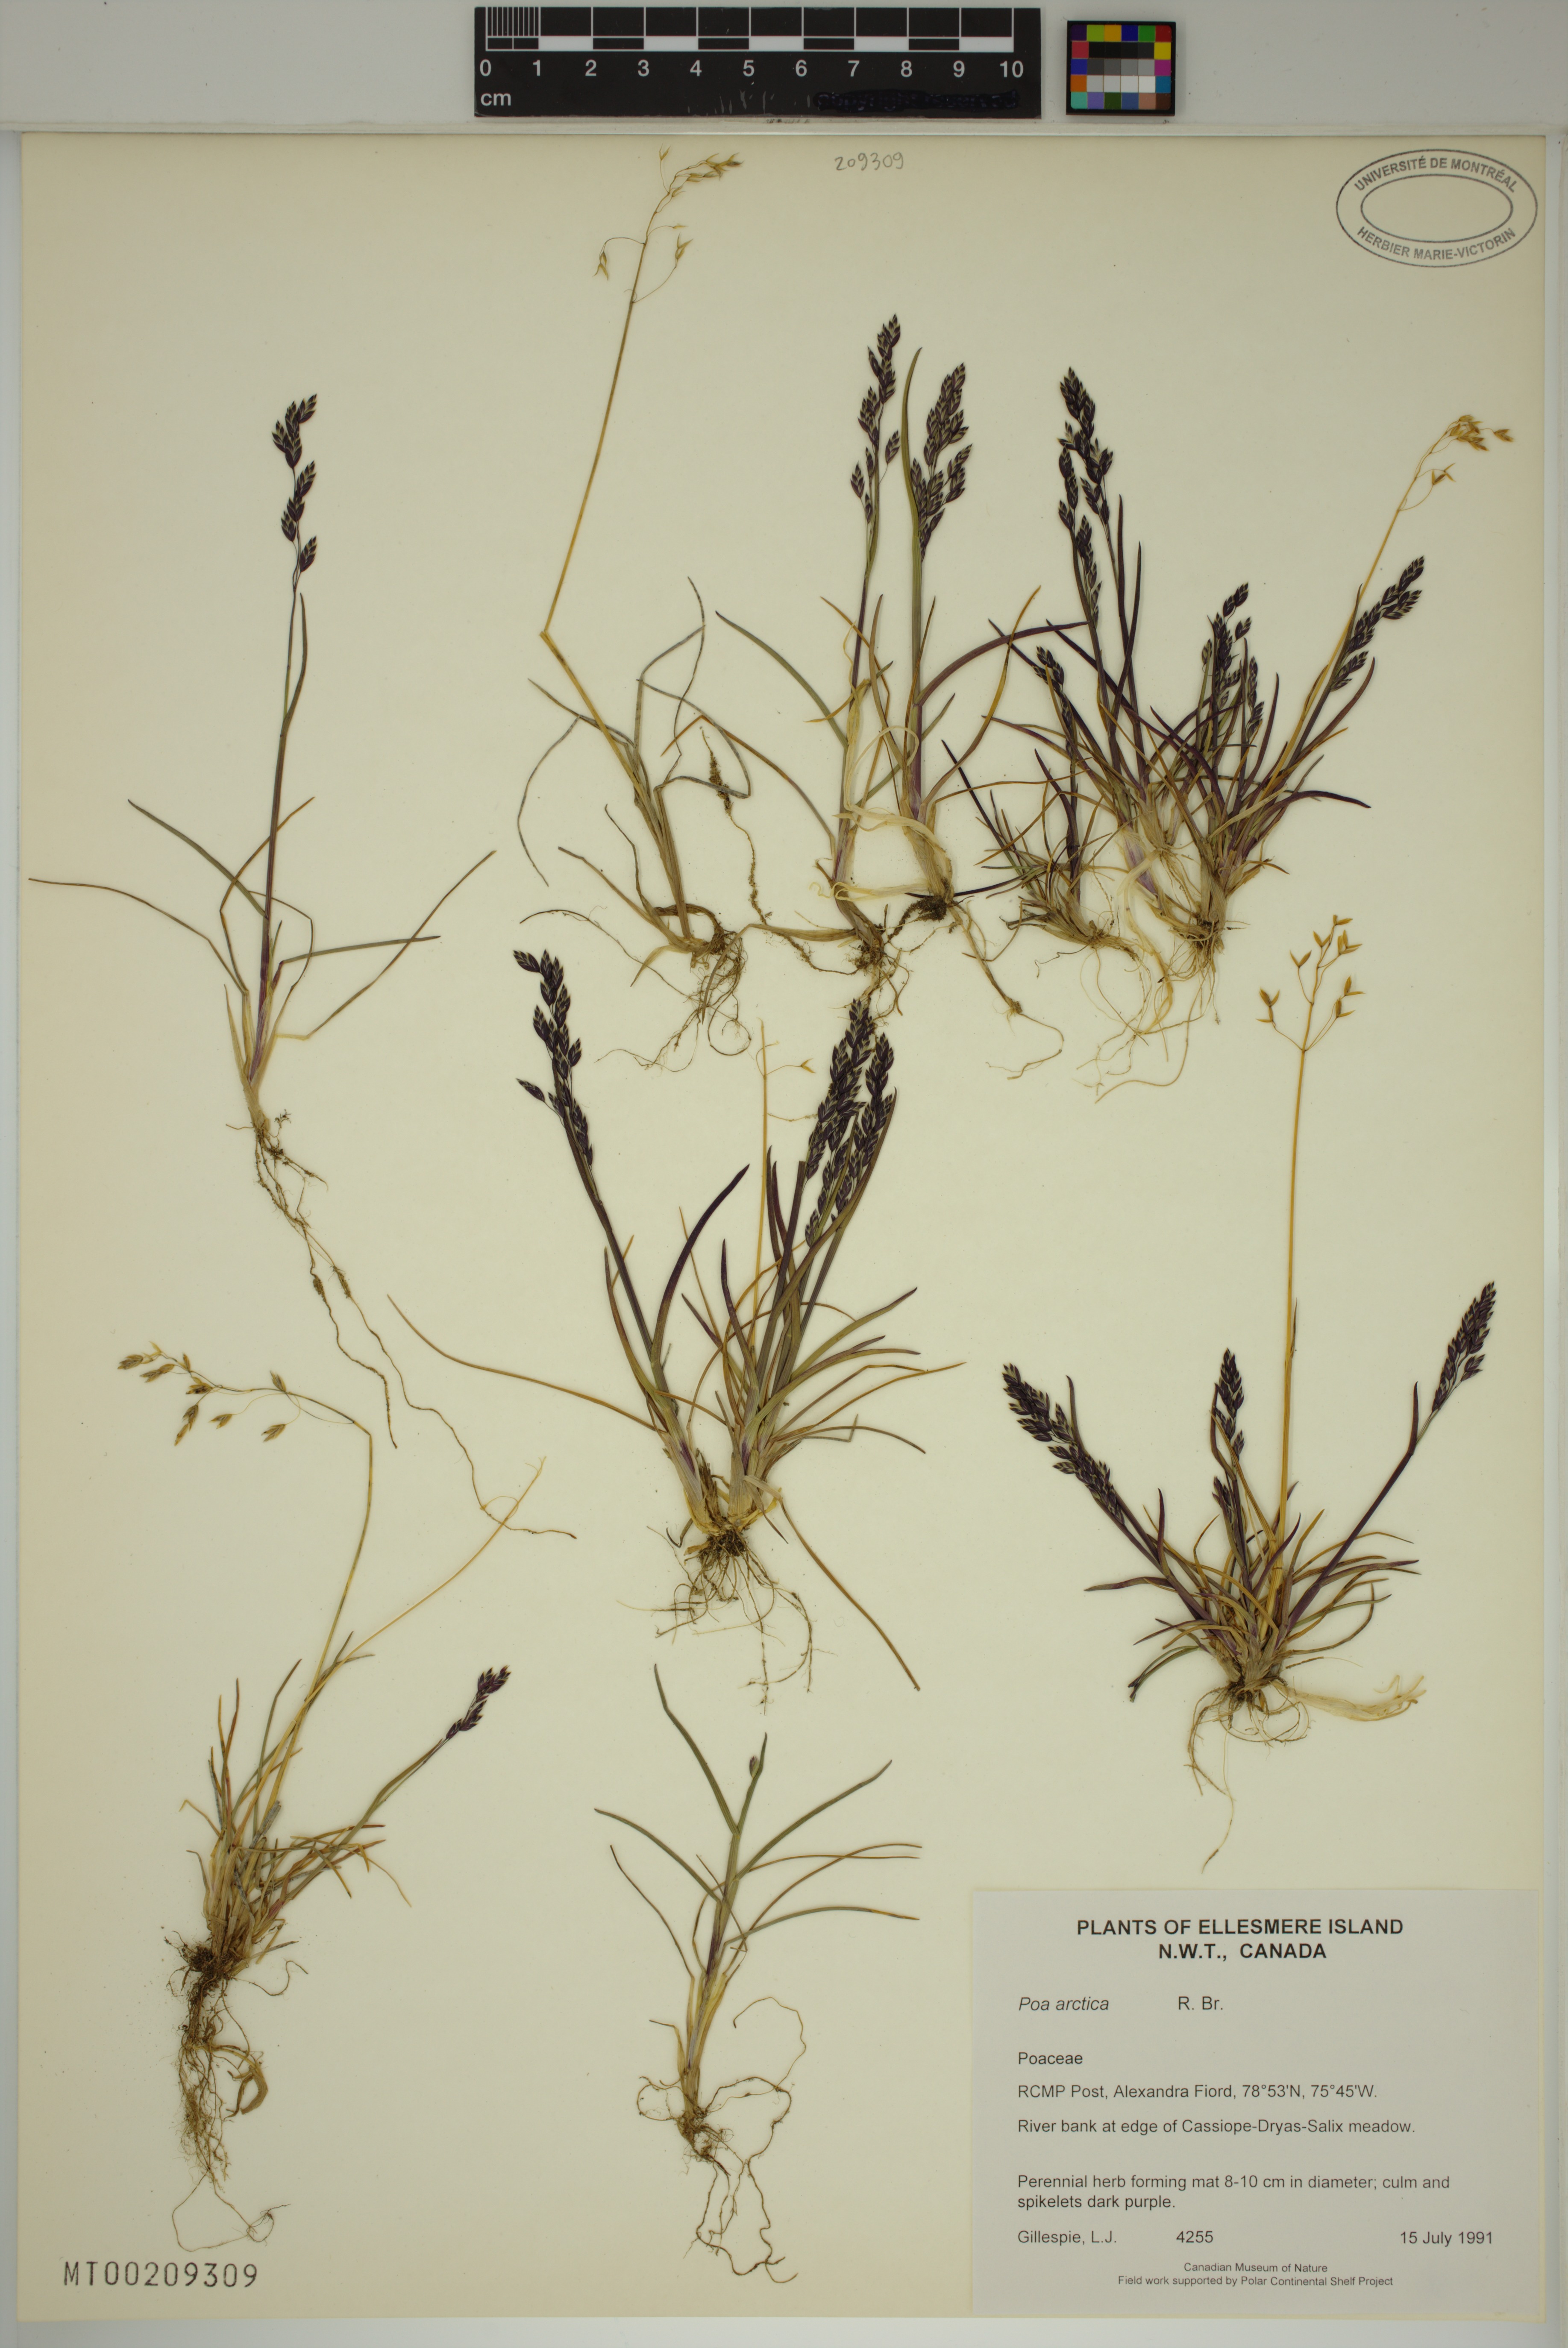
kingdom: Plantae
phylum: Tracheophyta
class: Liliopsida
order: Poales
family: Poaceae
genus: Poa
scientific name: Poa arctica
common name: Arctic bluegrass
